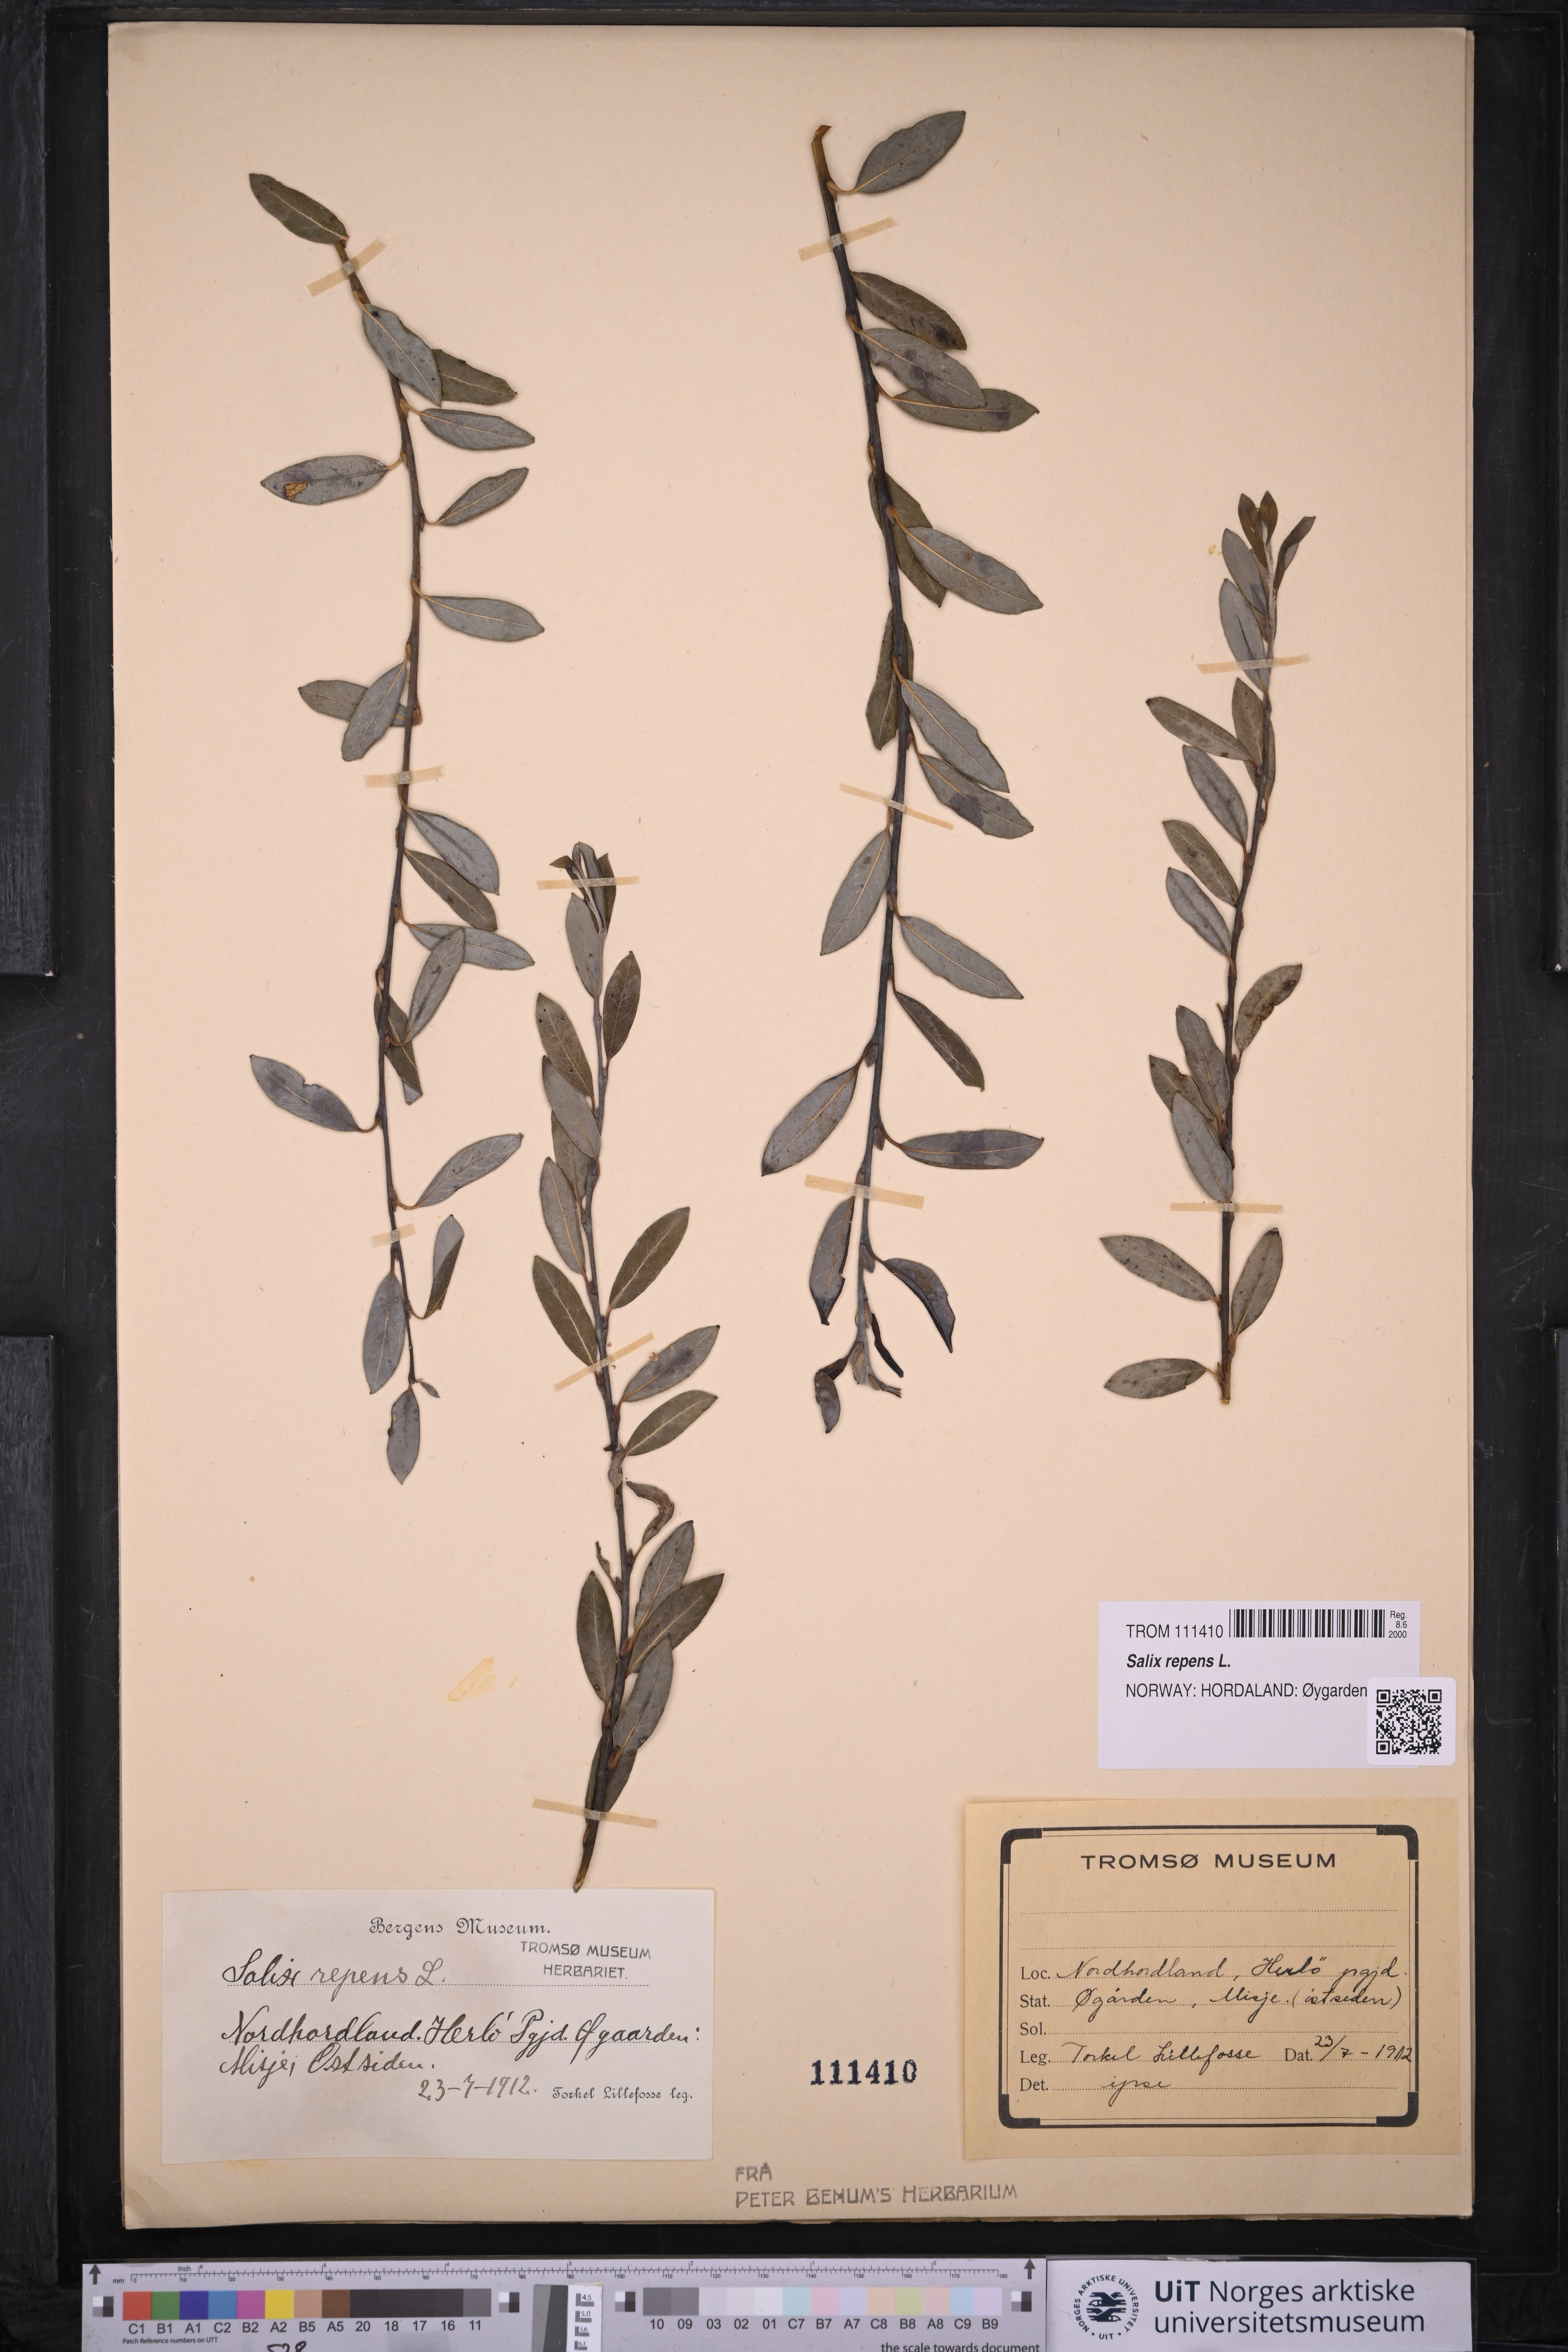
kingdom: Plantae
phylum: Tracheophyta
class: Magnoliopsida
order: Malpighiales
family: Salicaceae
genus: Salix
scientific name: Salix repens
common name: Creeping willow
